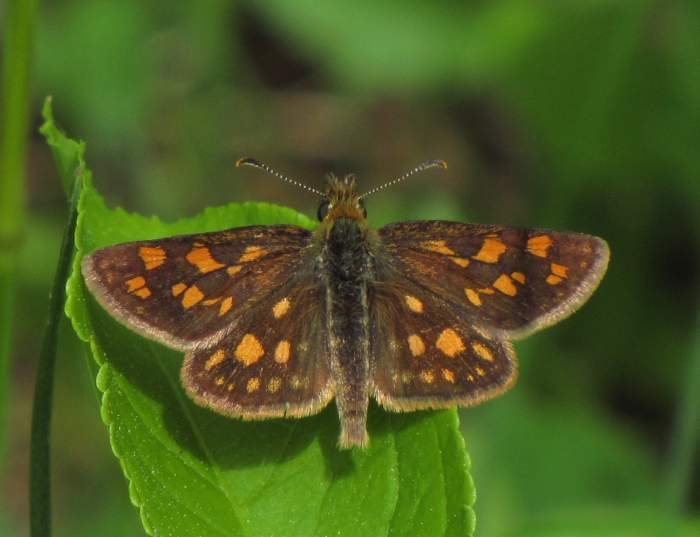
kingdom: Animalia
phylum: Arthropoda
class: Insecta
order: Lepidoptera
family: Hesperiidae
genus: Carterocephalus
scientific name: Carterocephalus palaemon
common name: Chequered Skipper
